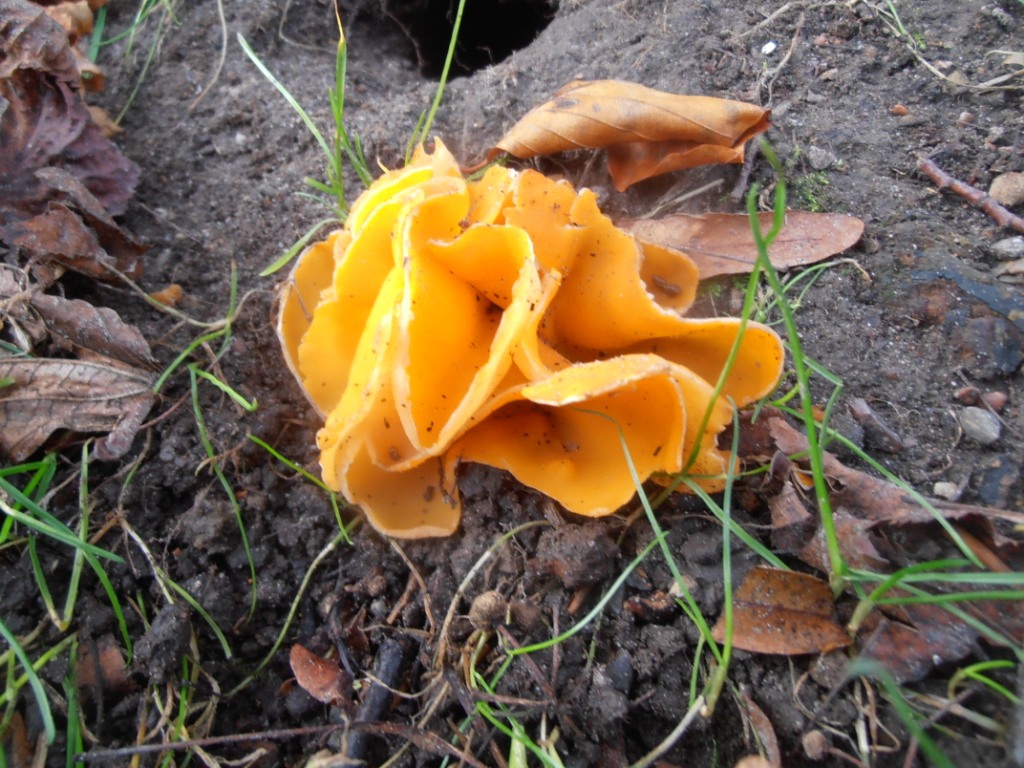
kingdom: Fungi
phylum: Ascomycota
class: Pezizomycetes
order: Pezizales
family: Pyronemataceae
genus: Aleuria
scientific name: Aleuria aurantia
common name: almindelig orangebæger
